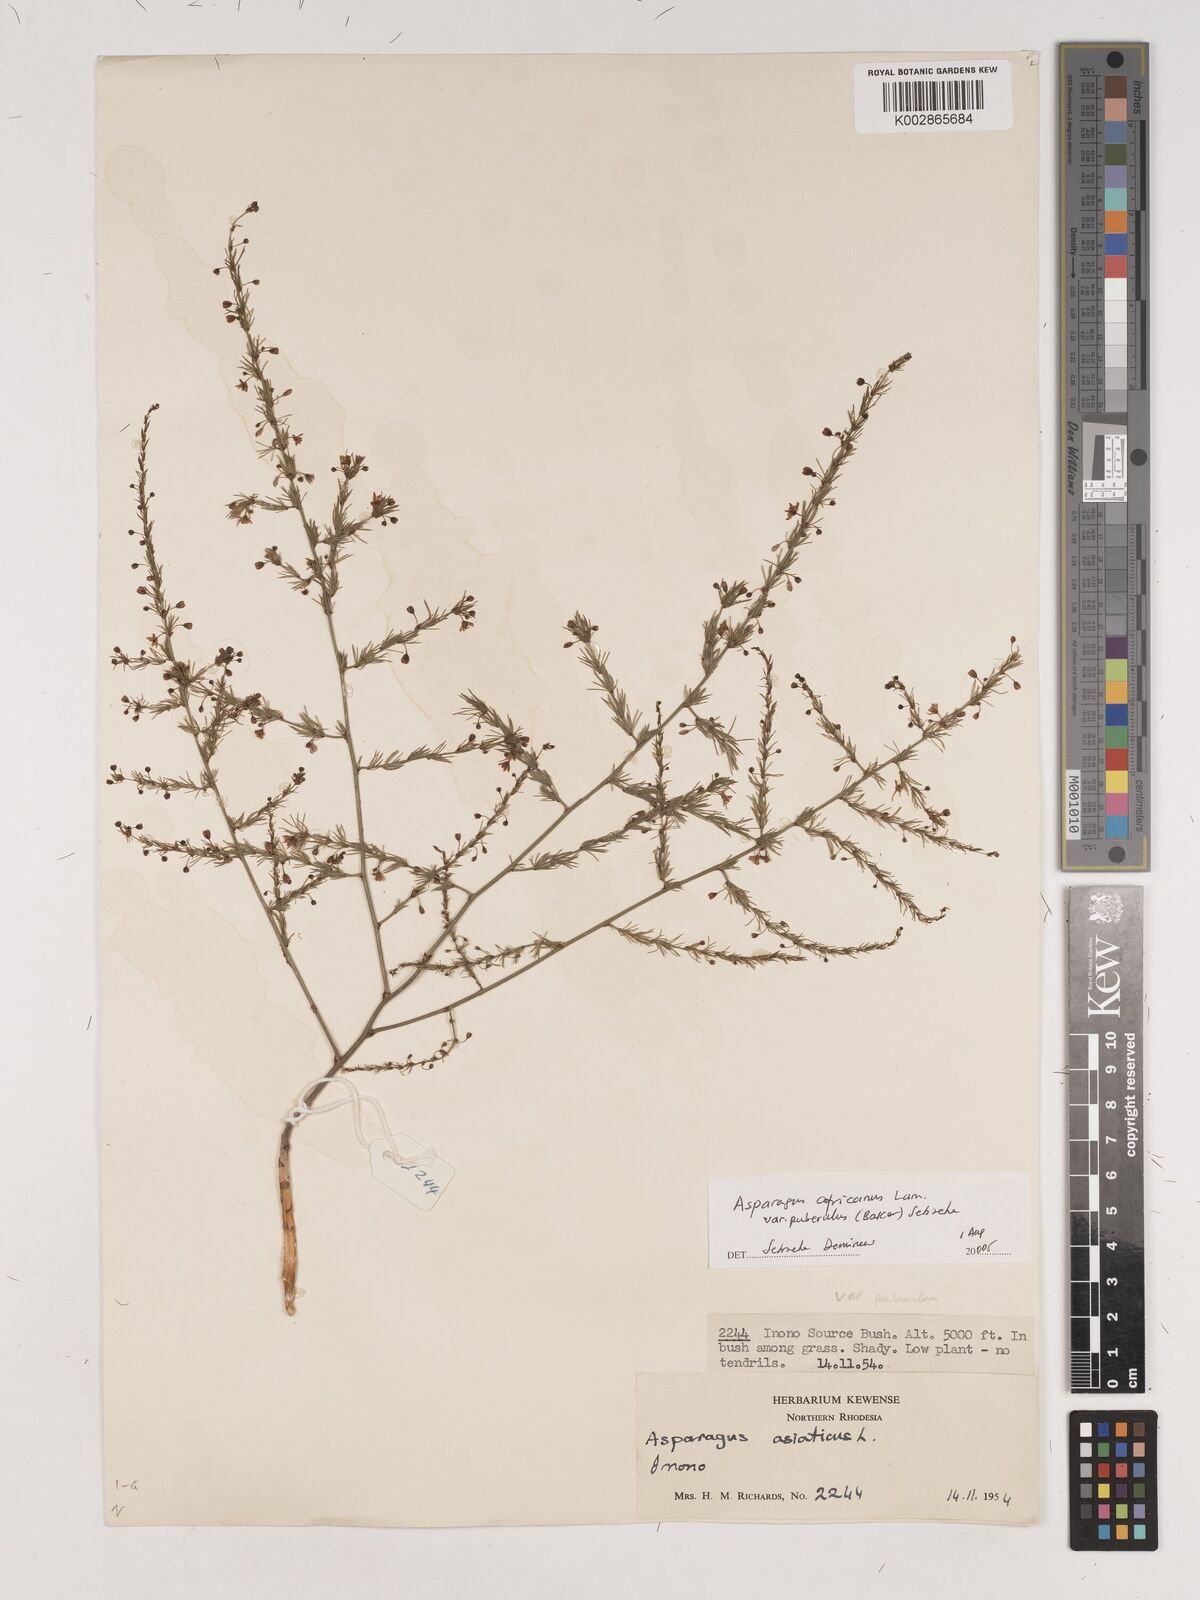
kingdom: Plantae
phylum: Tracheophyta
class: Liliopsida
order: Asparagales
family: Asparagaceae
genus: Asparagus
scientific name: Asparagus
